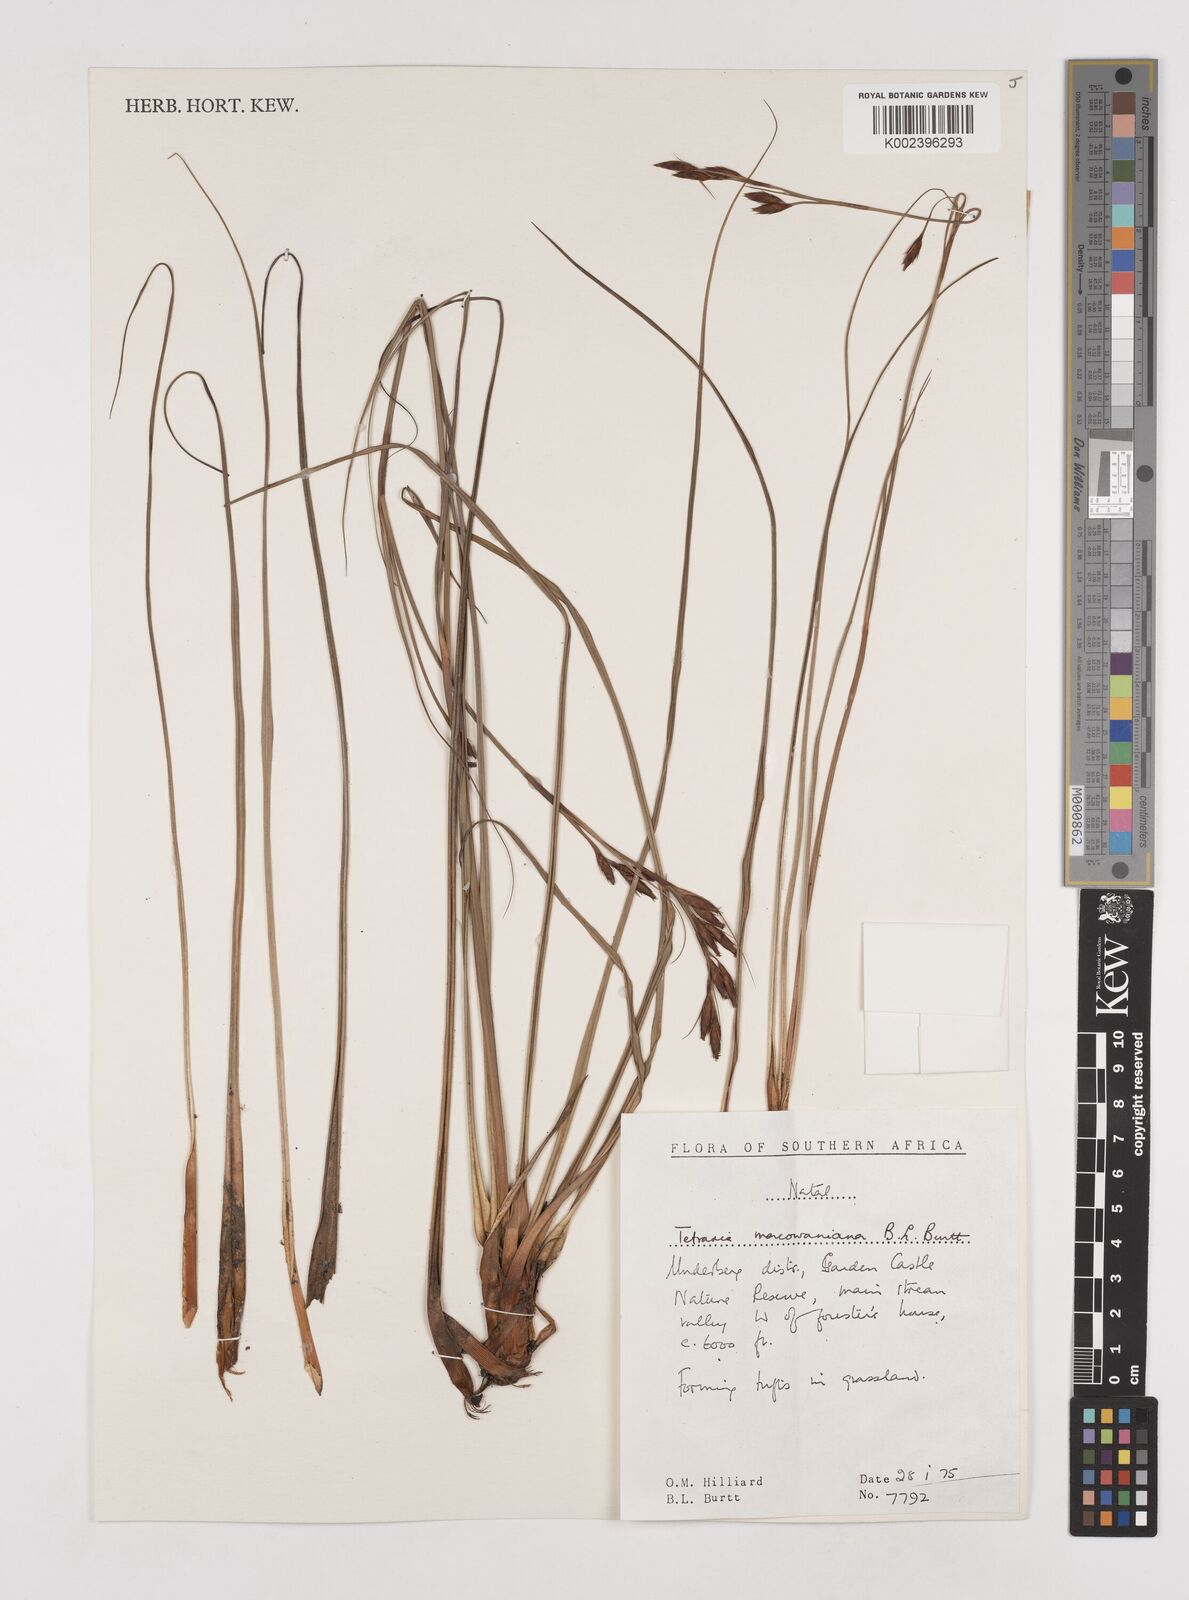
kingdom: Plantae
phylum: Tracheophyta
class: Liliopsida
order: Poales
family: Cyperaceae
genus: Tetraria
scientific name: Tetraria macowaniana
